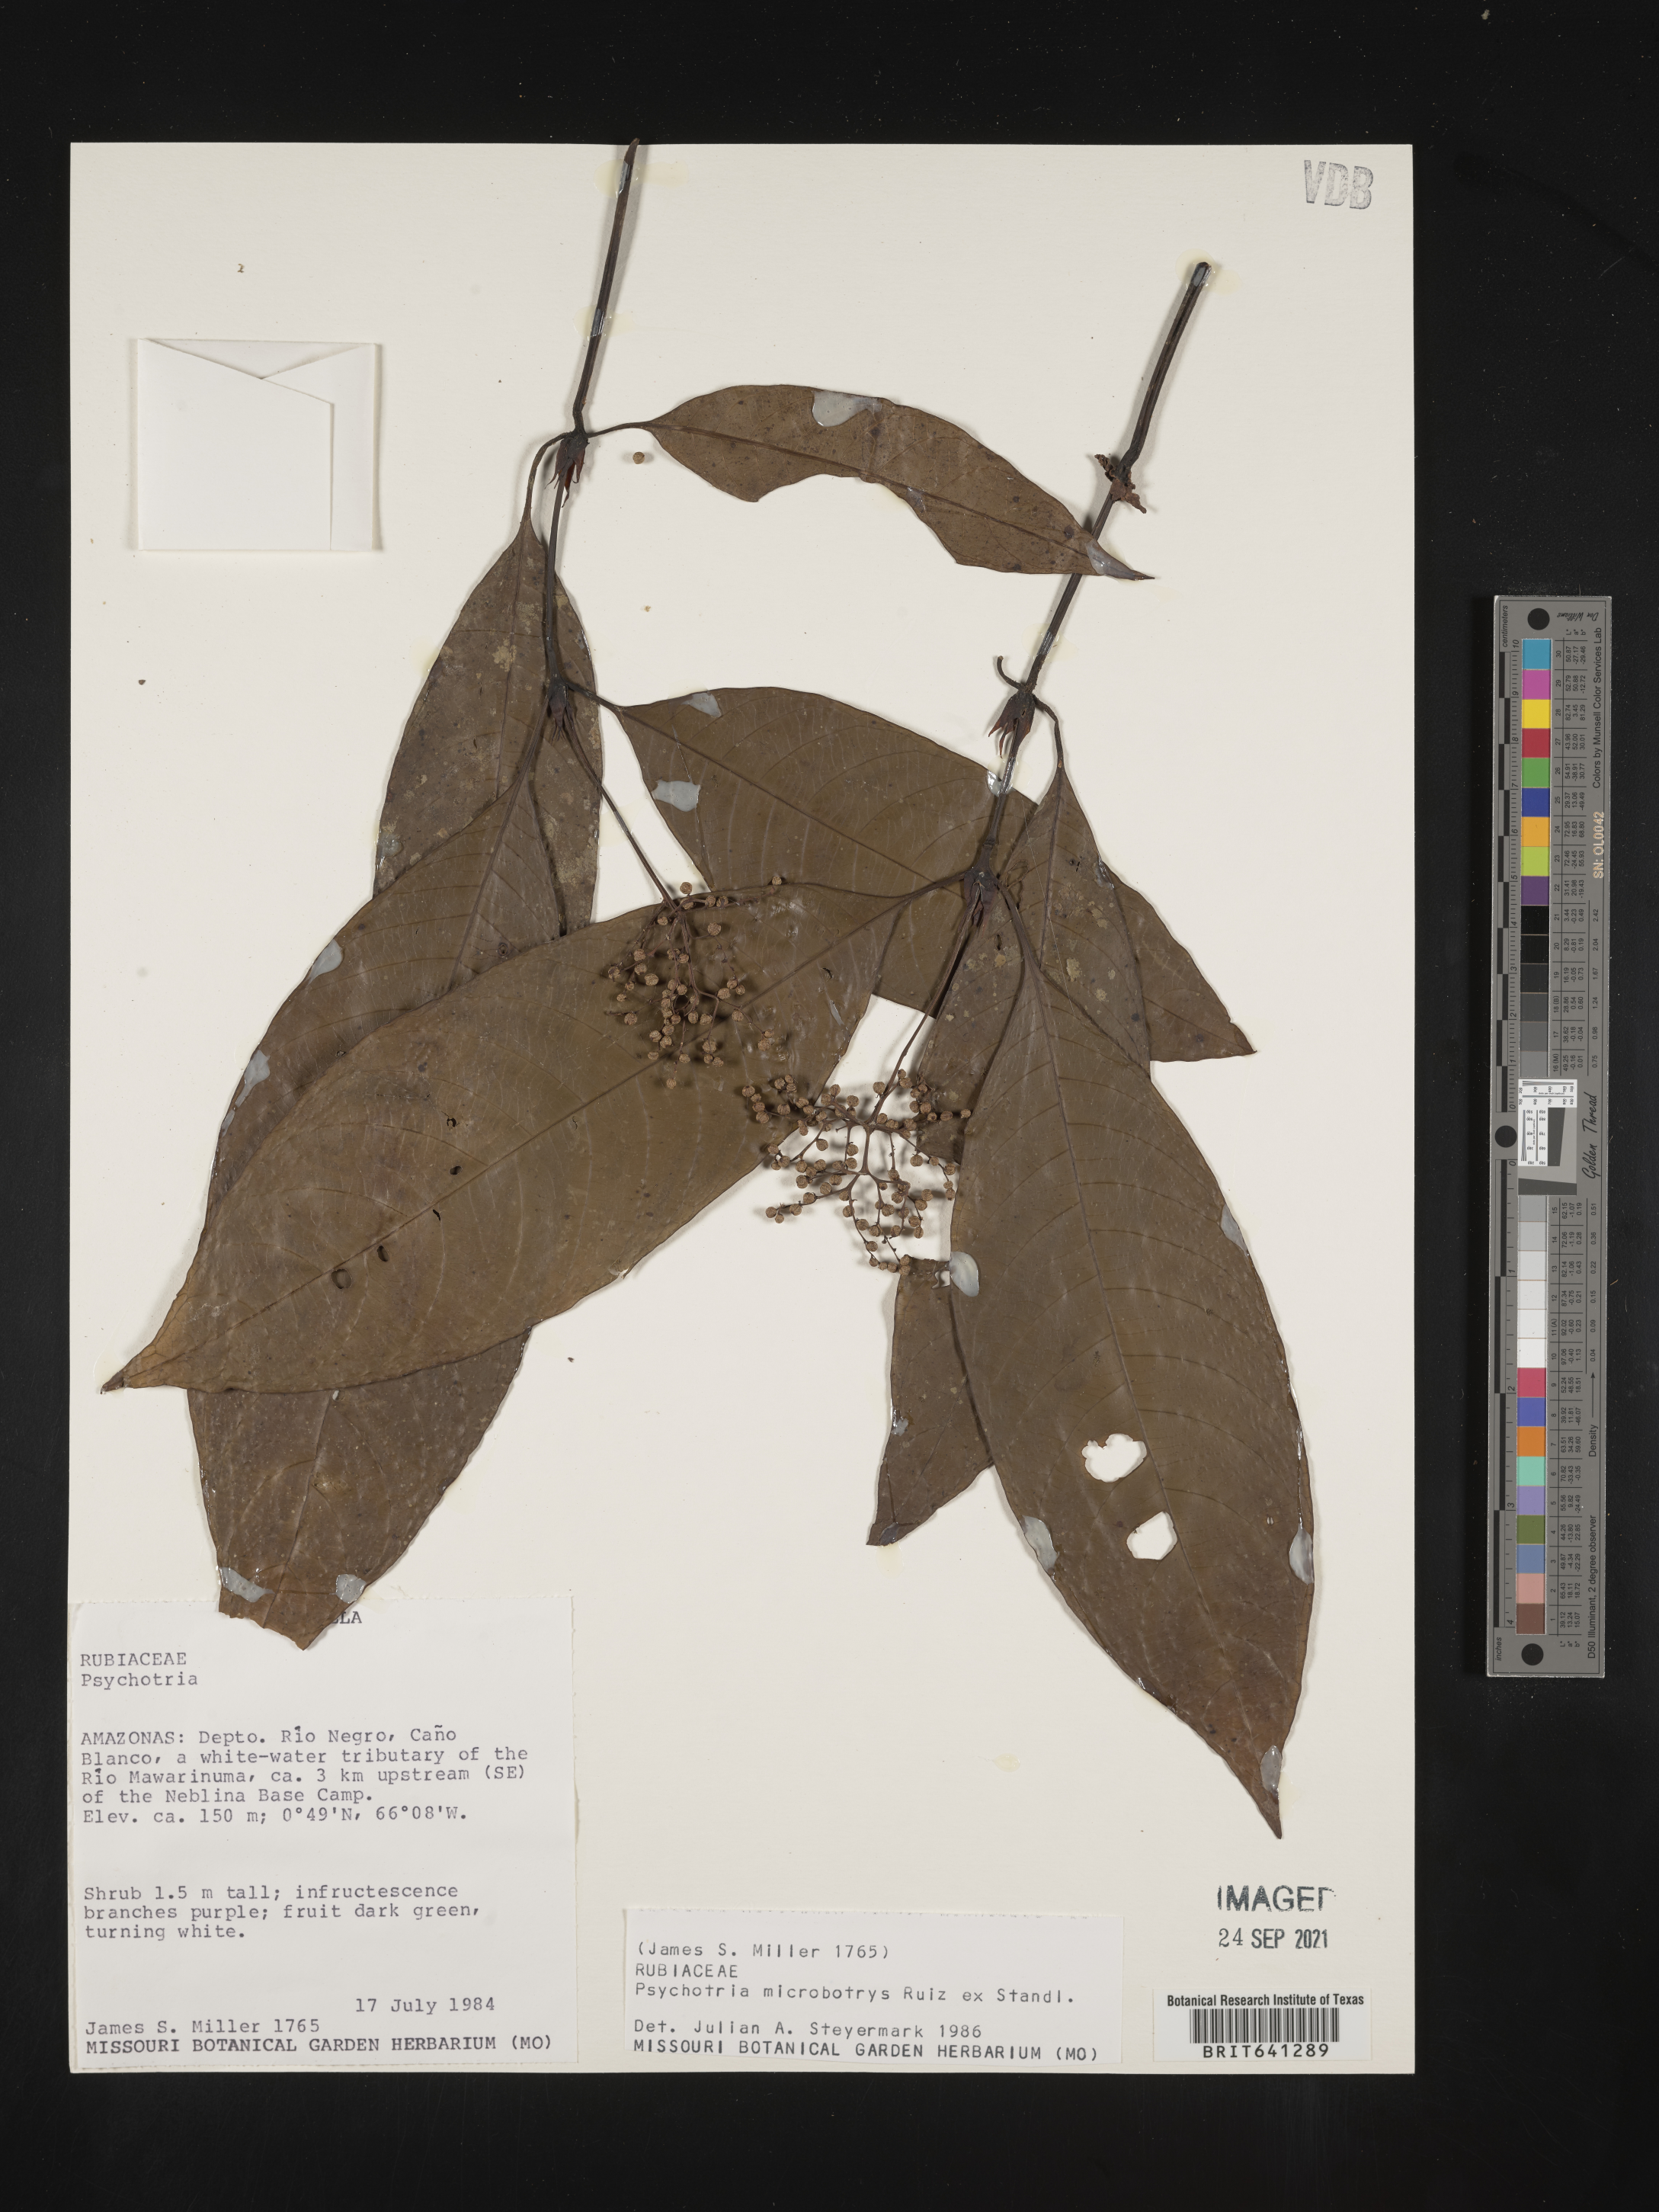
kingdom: Plantae
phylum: Tracheophyta
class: Magnoliopsida
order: Gentianales
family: Rubiaceae
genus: Psychotria
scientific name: Psychotria
